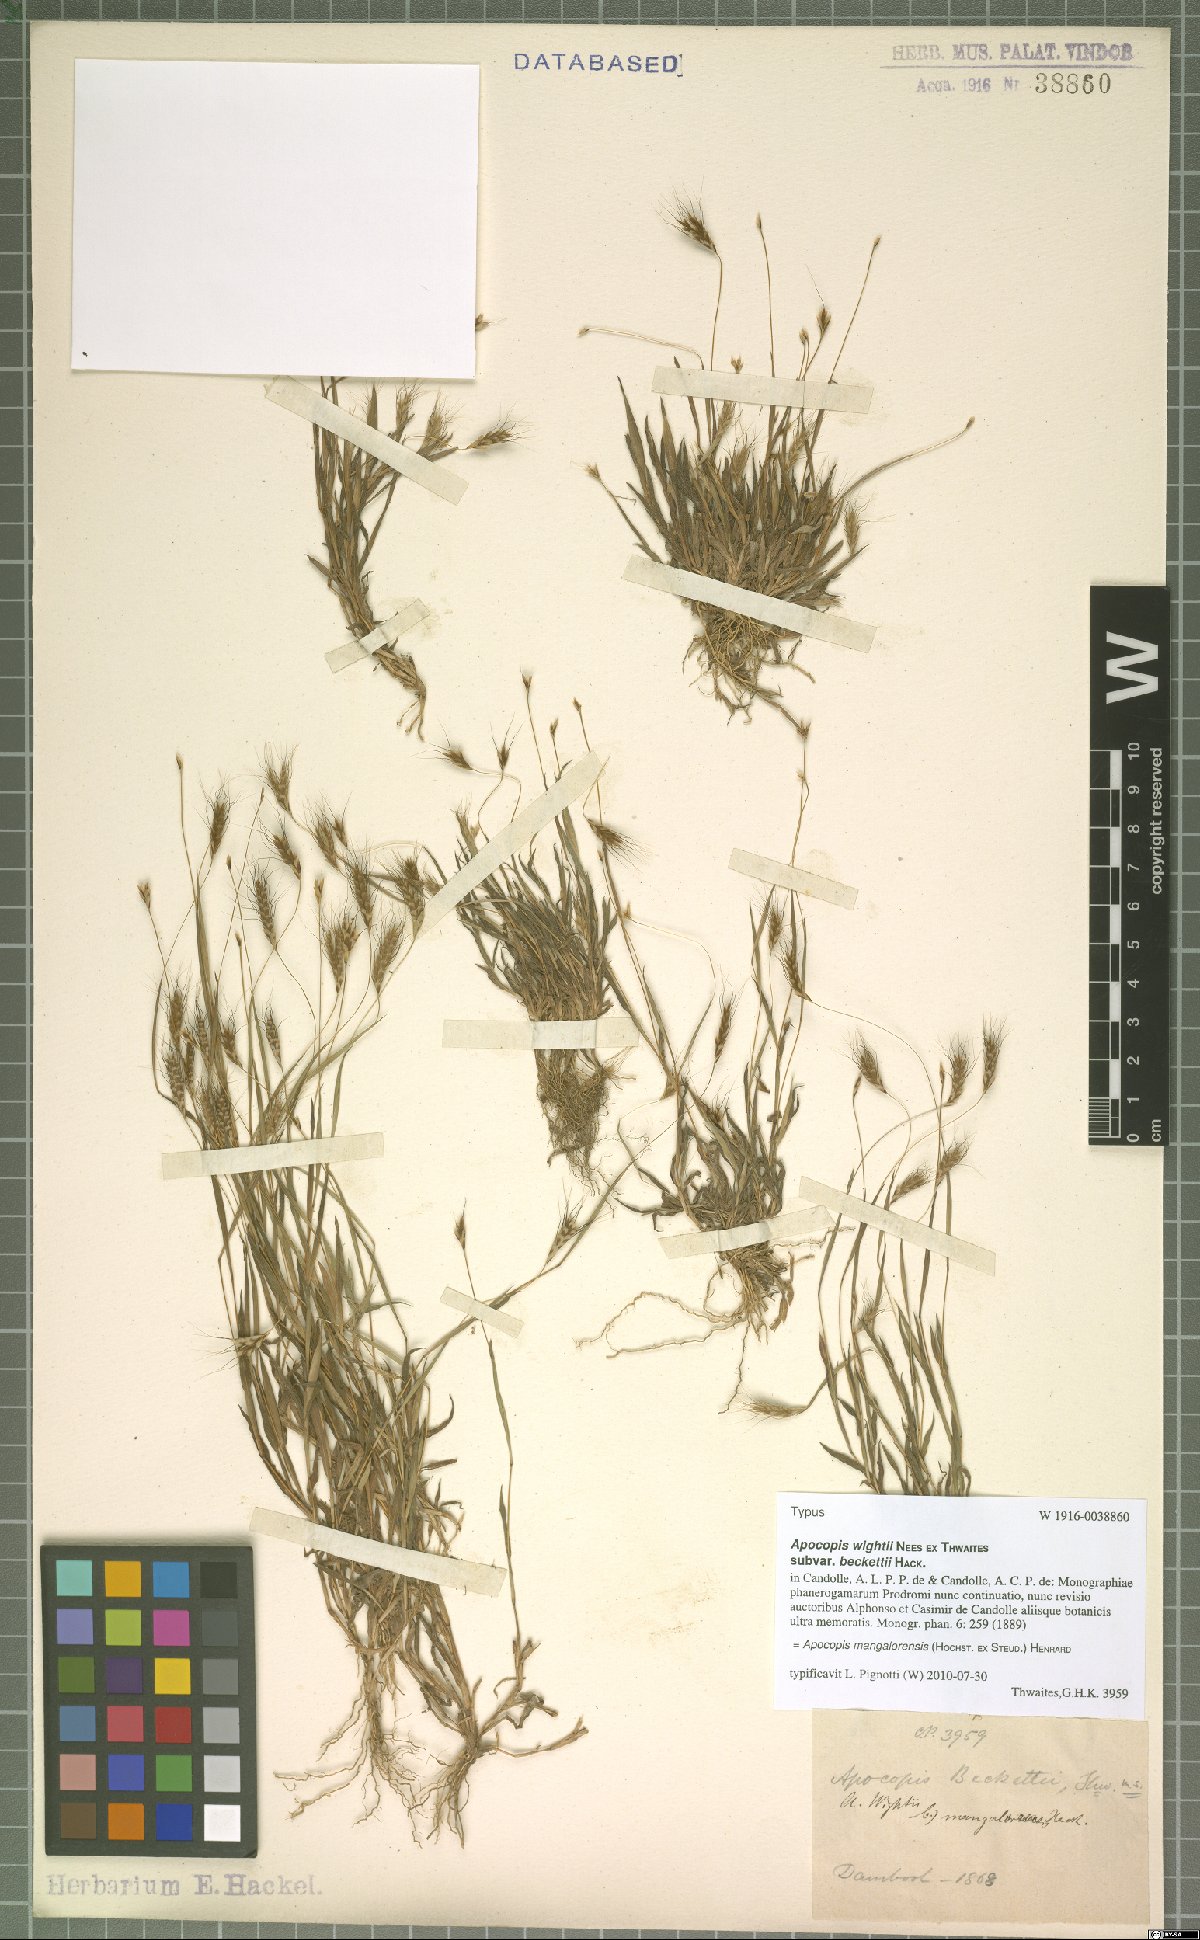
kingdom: Plantae
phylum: Tracheophyta
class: Liliopsida
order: Poales
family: Poaceae
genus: Apocopis
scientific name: Apocopis mangalorensis
